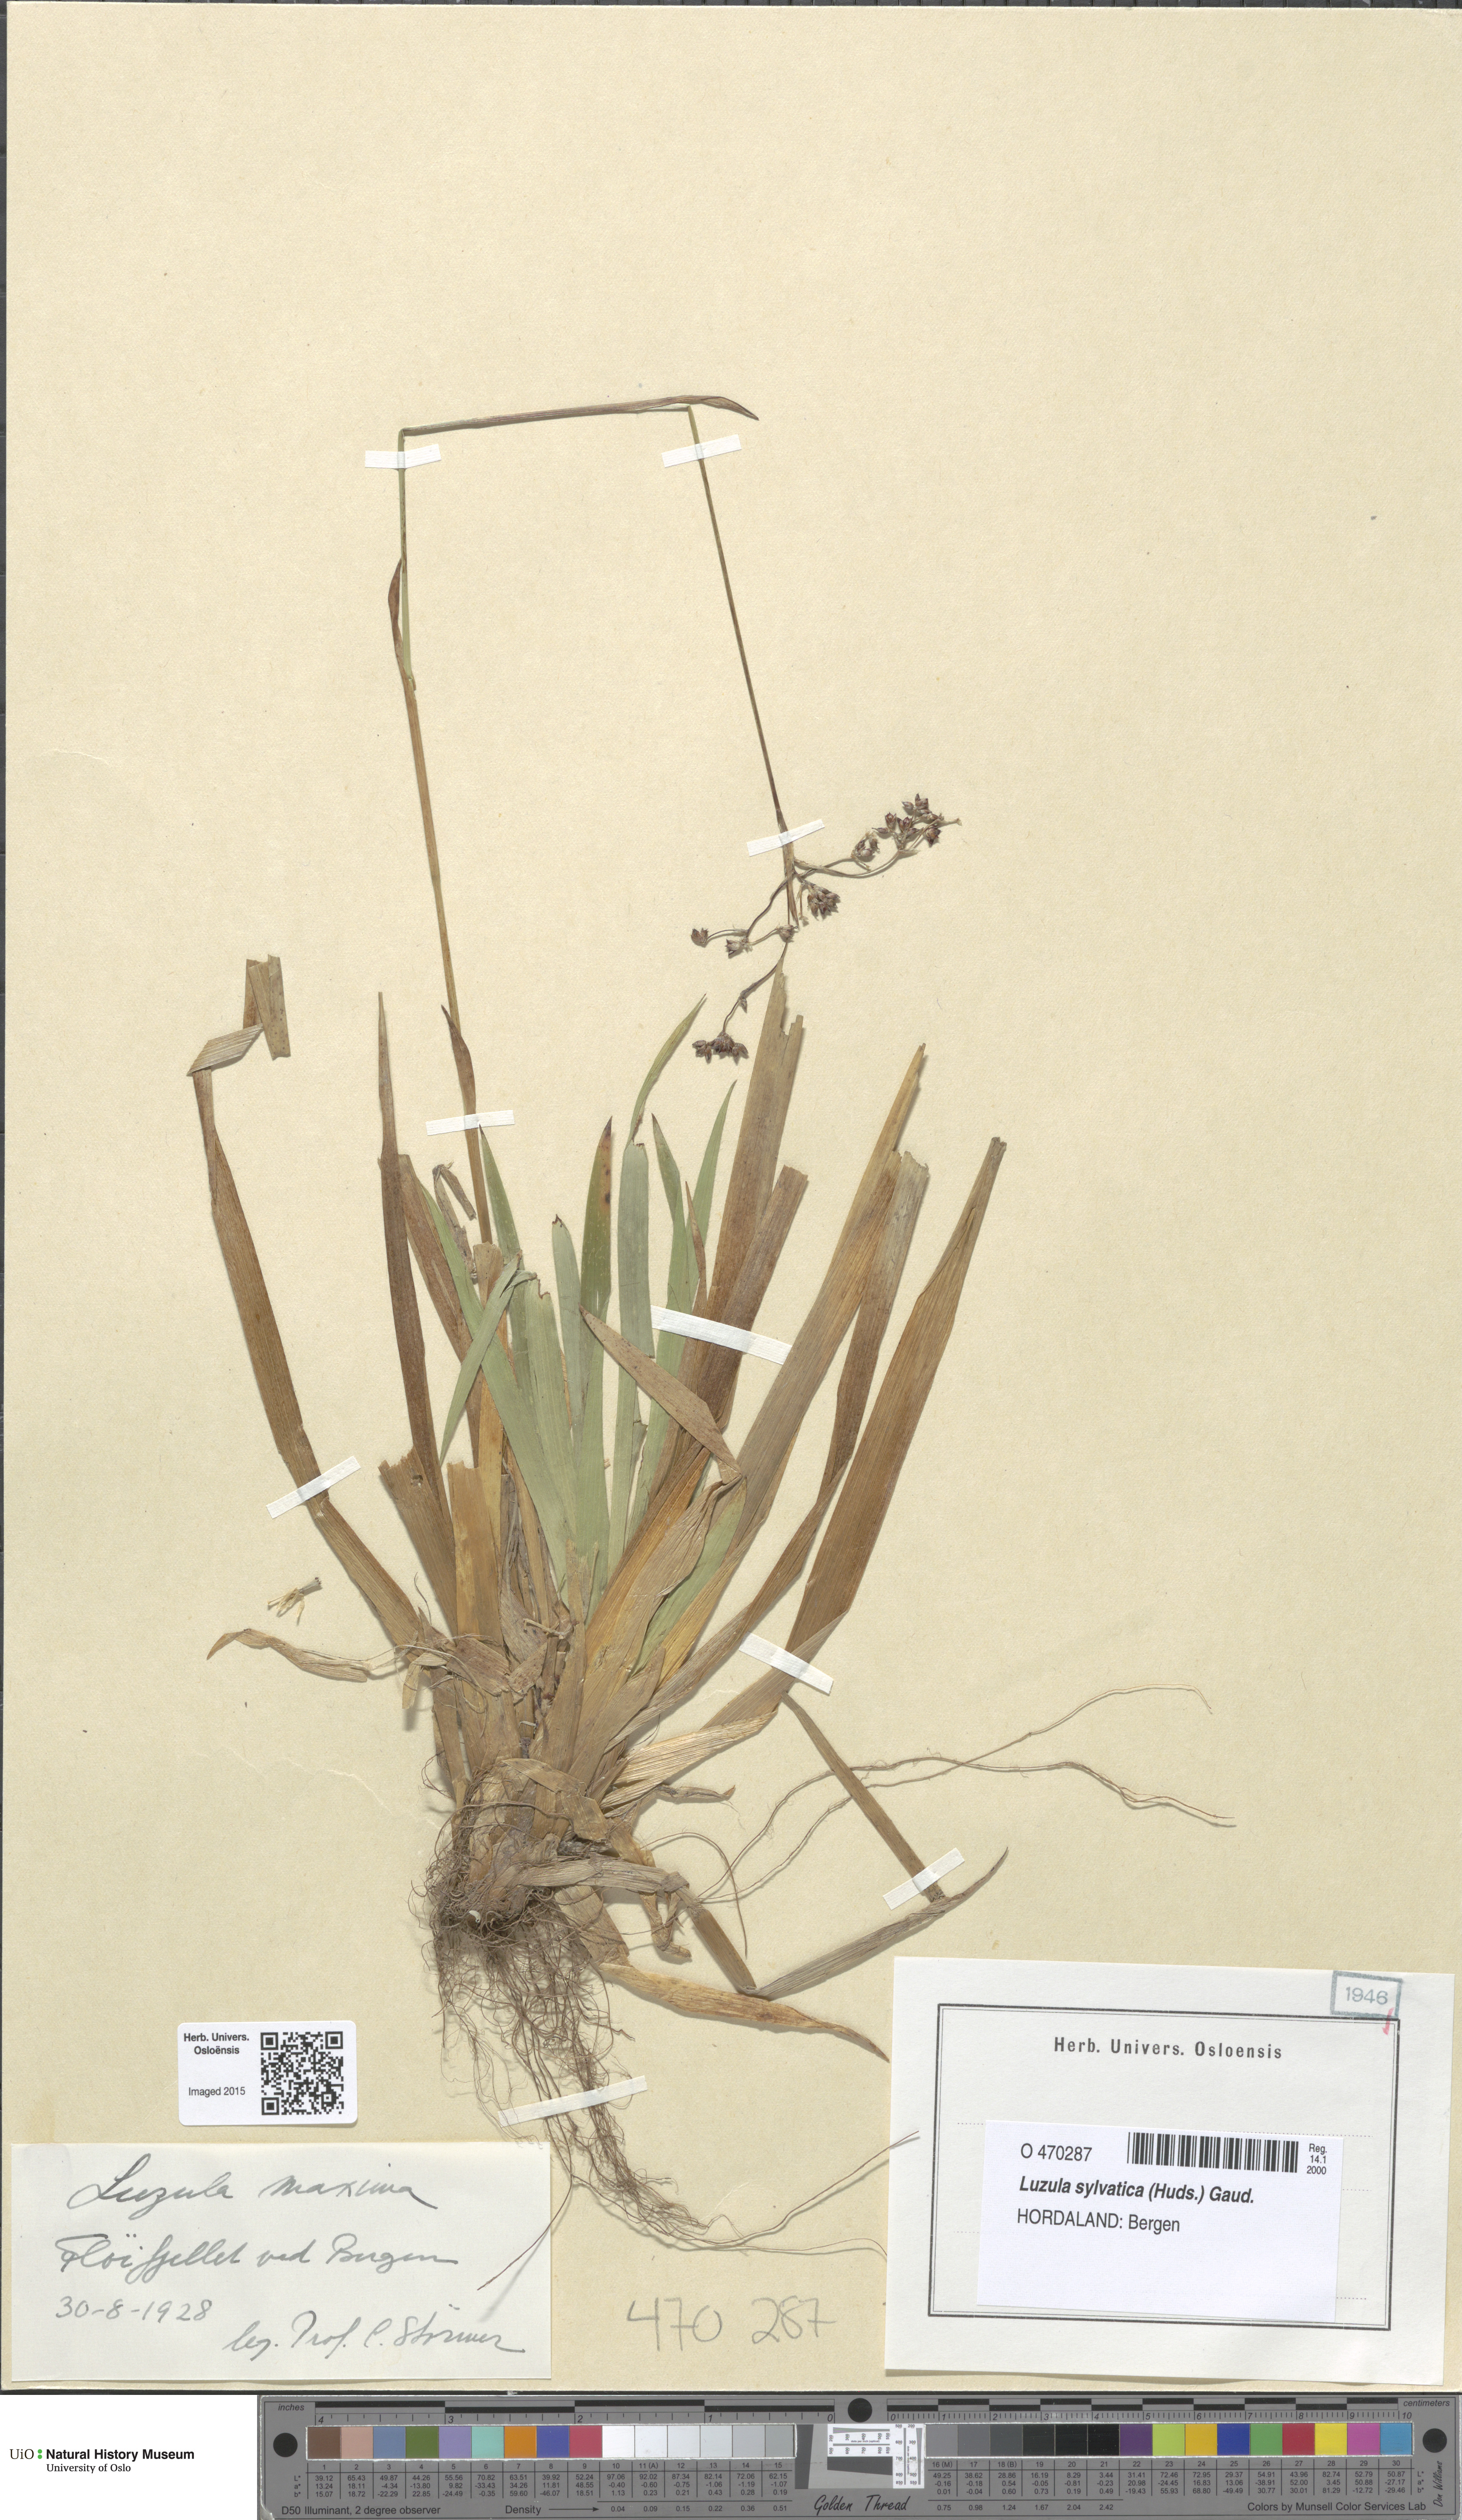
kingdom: Plantae
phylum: Tracheophyta
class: Liliopsida
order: Poales
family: Juncaceae
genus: Luzula
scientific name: Luzula sylvatica
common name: Great wood-rush
